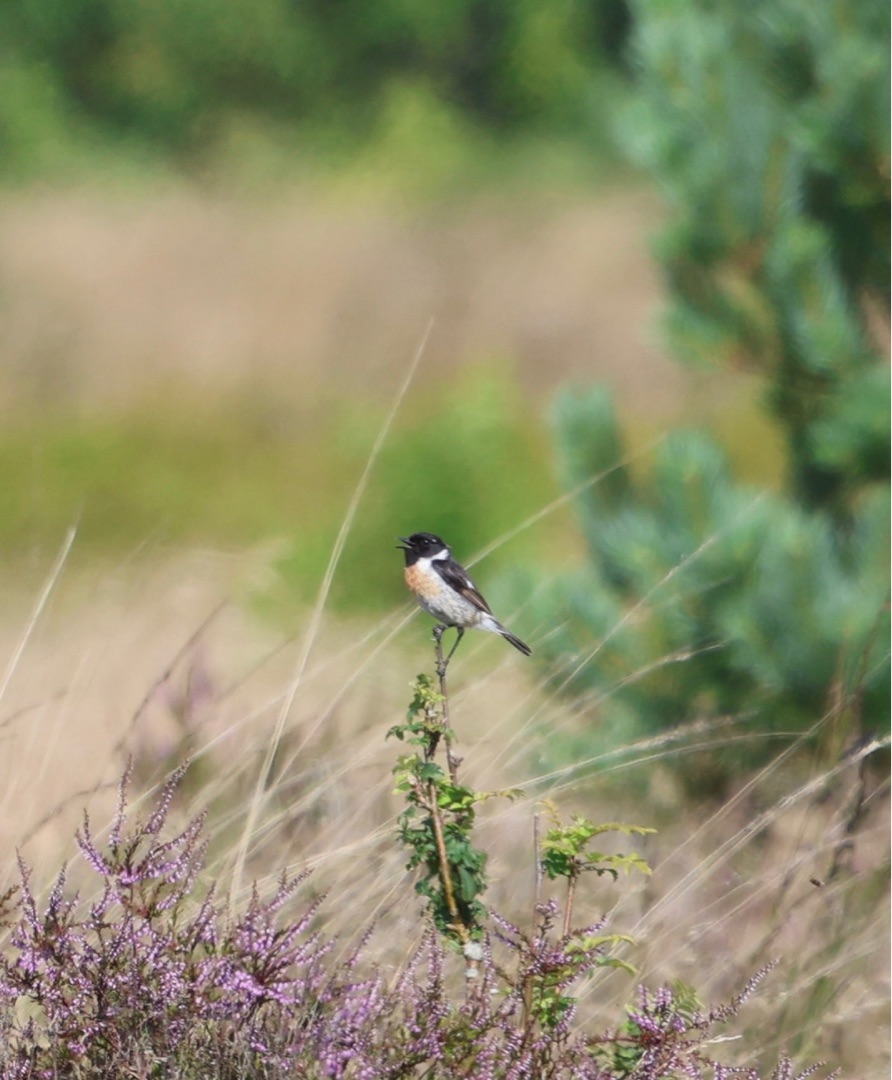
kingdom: Animalia
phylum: Chordata
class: Aves
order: Passeriformes
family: Muscicapidae
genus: Saxicola
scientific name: Saxicola rubicola
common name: Sortstrubet bynkefugl
